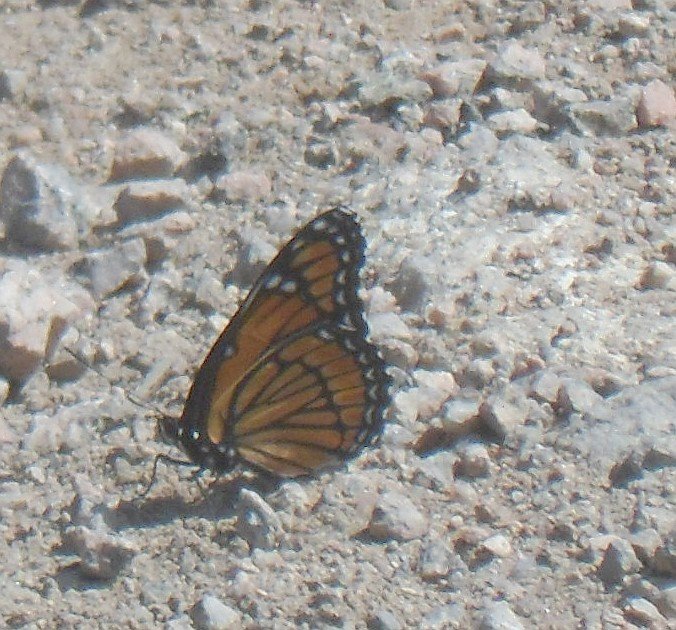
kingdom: Animalia
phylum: Arthropoda
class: Insecta
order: Lepidoptera
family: Nymphalidae
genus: Limenitis
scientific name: Limenitis archippus
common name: Viceroy
